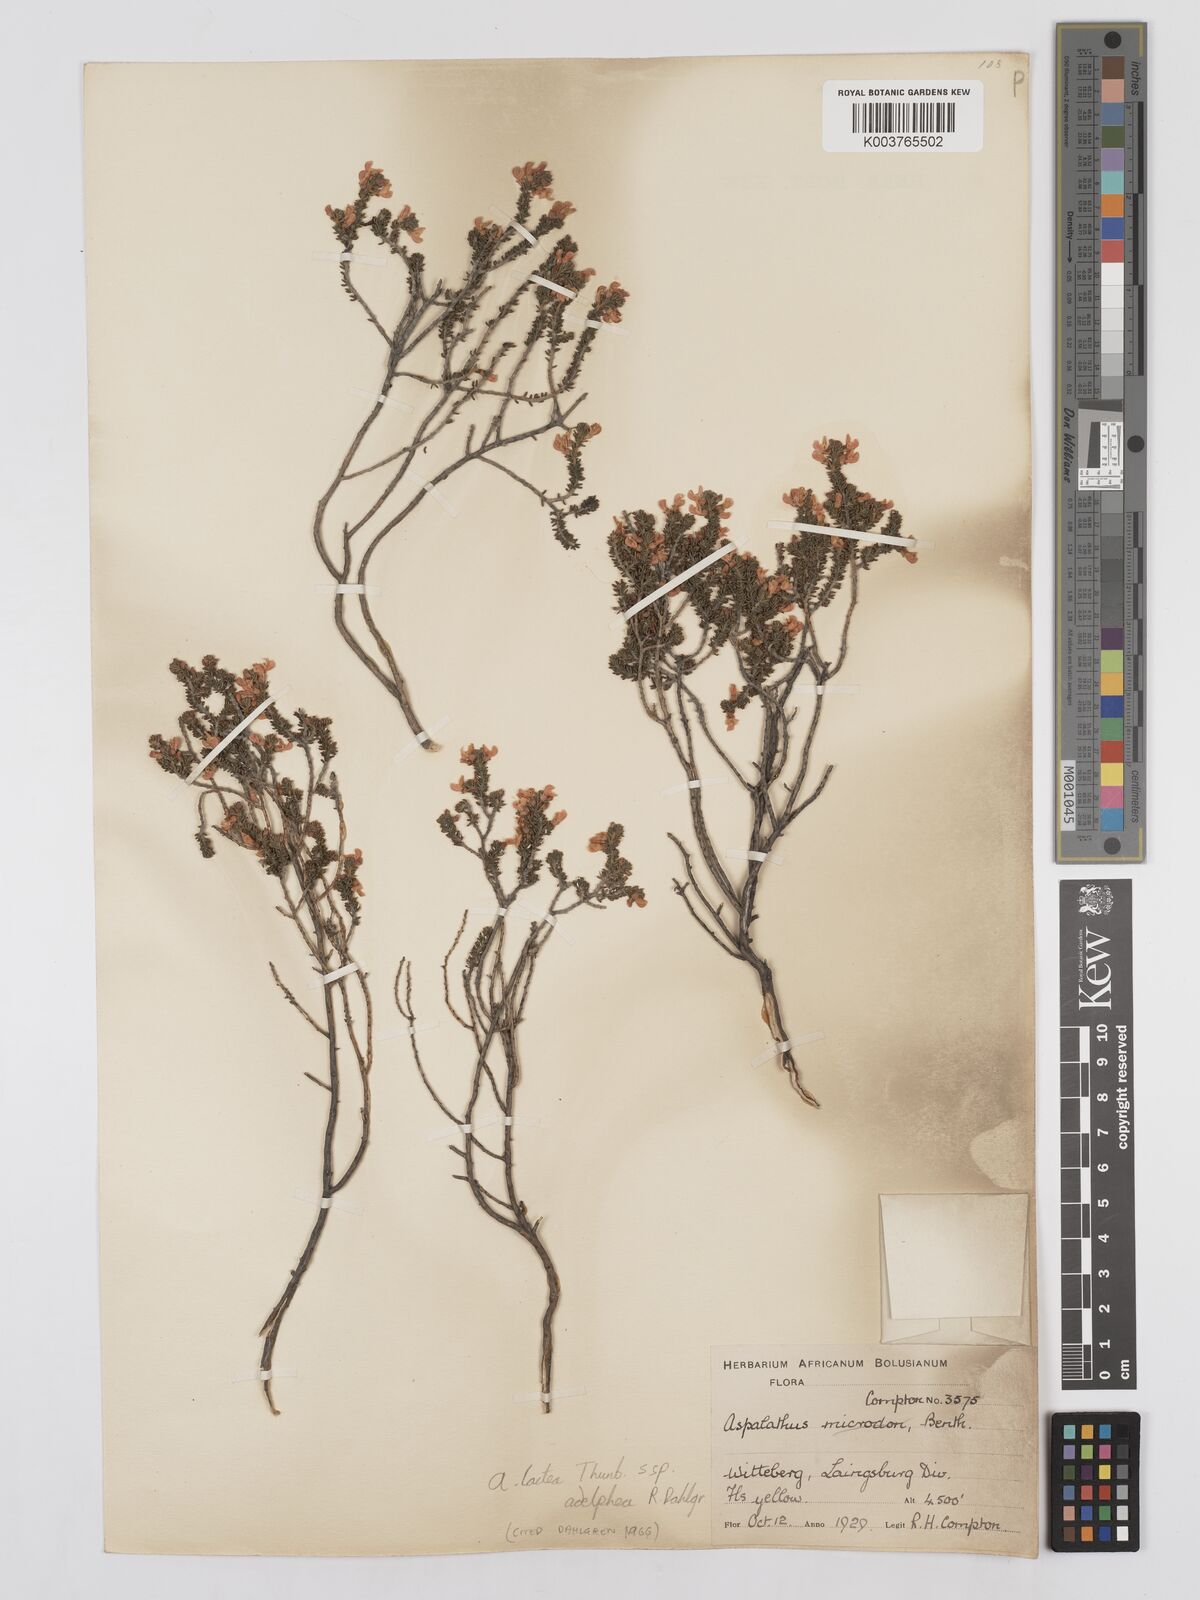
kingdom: Plantae
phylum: Tracheophyta
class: Magnoliopsida
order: Fabales
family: Fabaceae
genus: Aspalathus
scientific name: Aspalathus lactea
